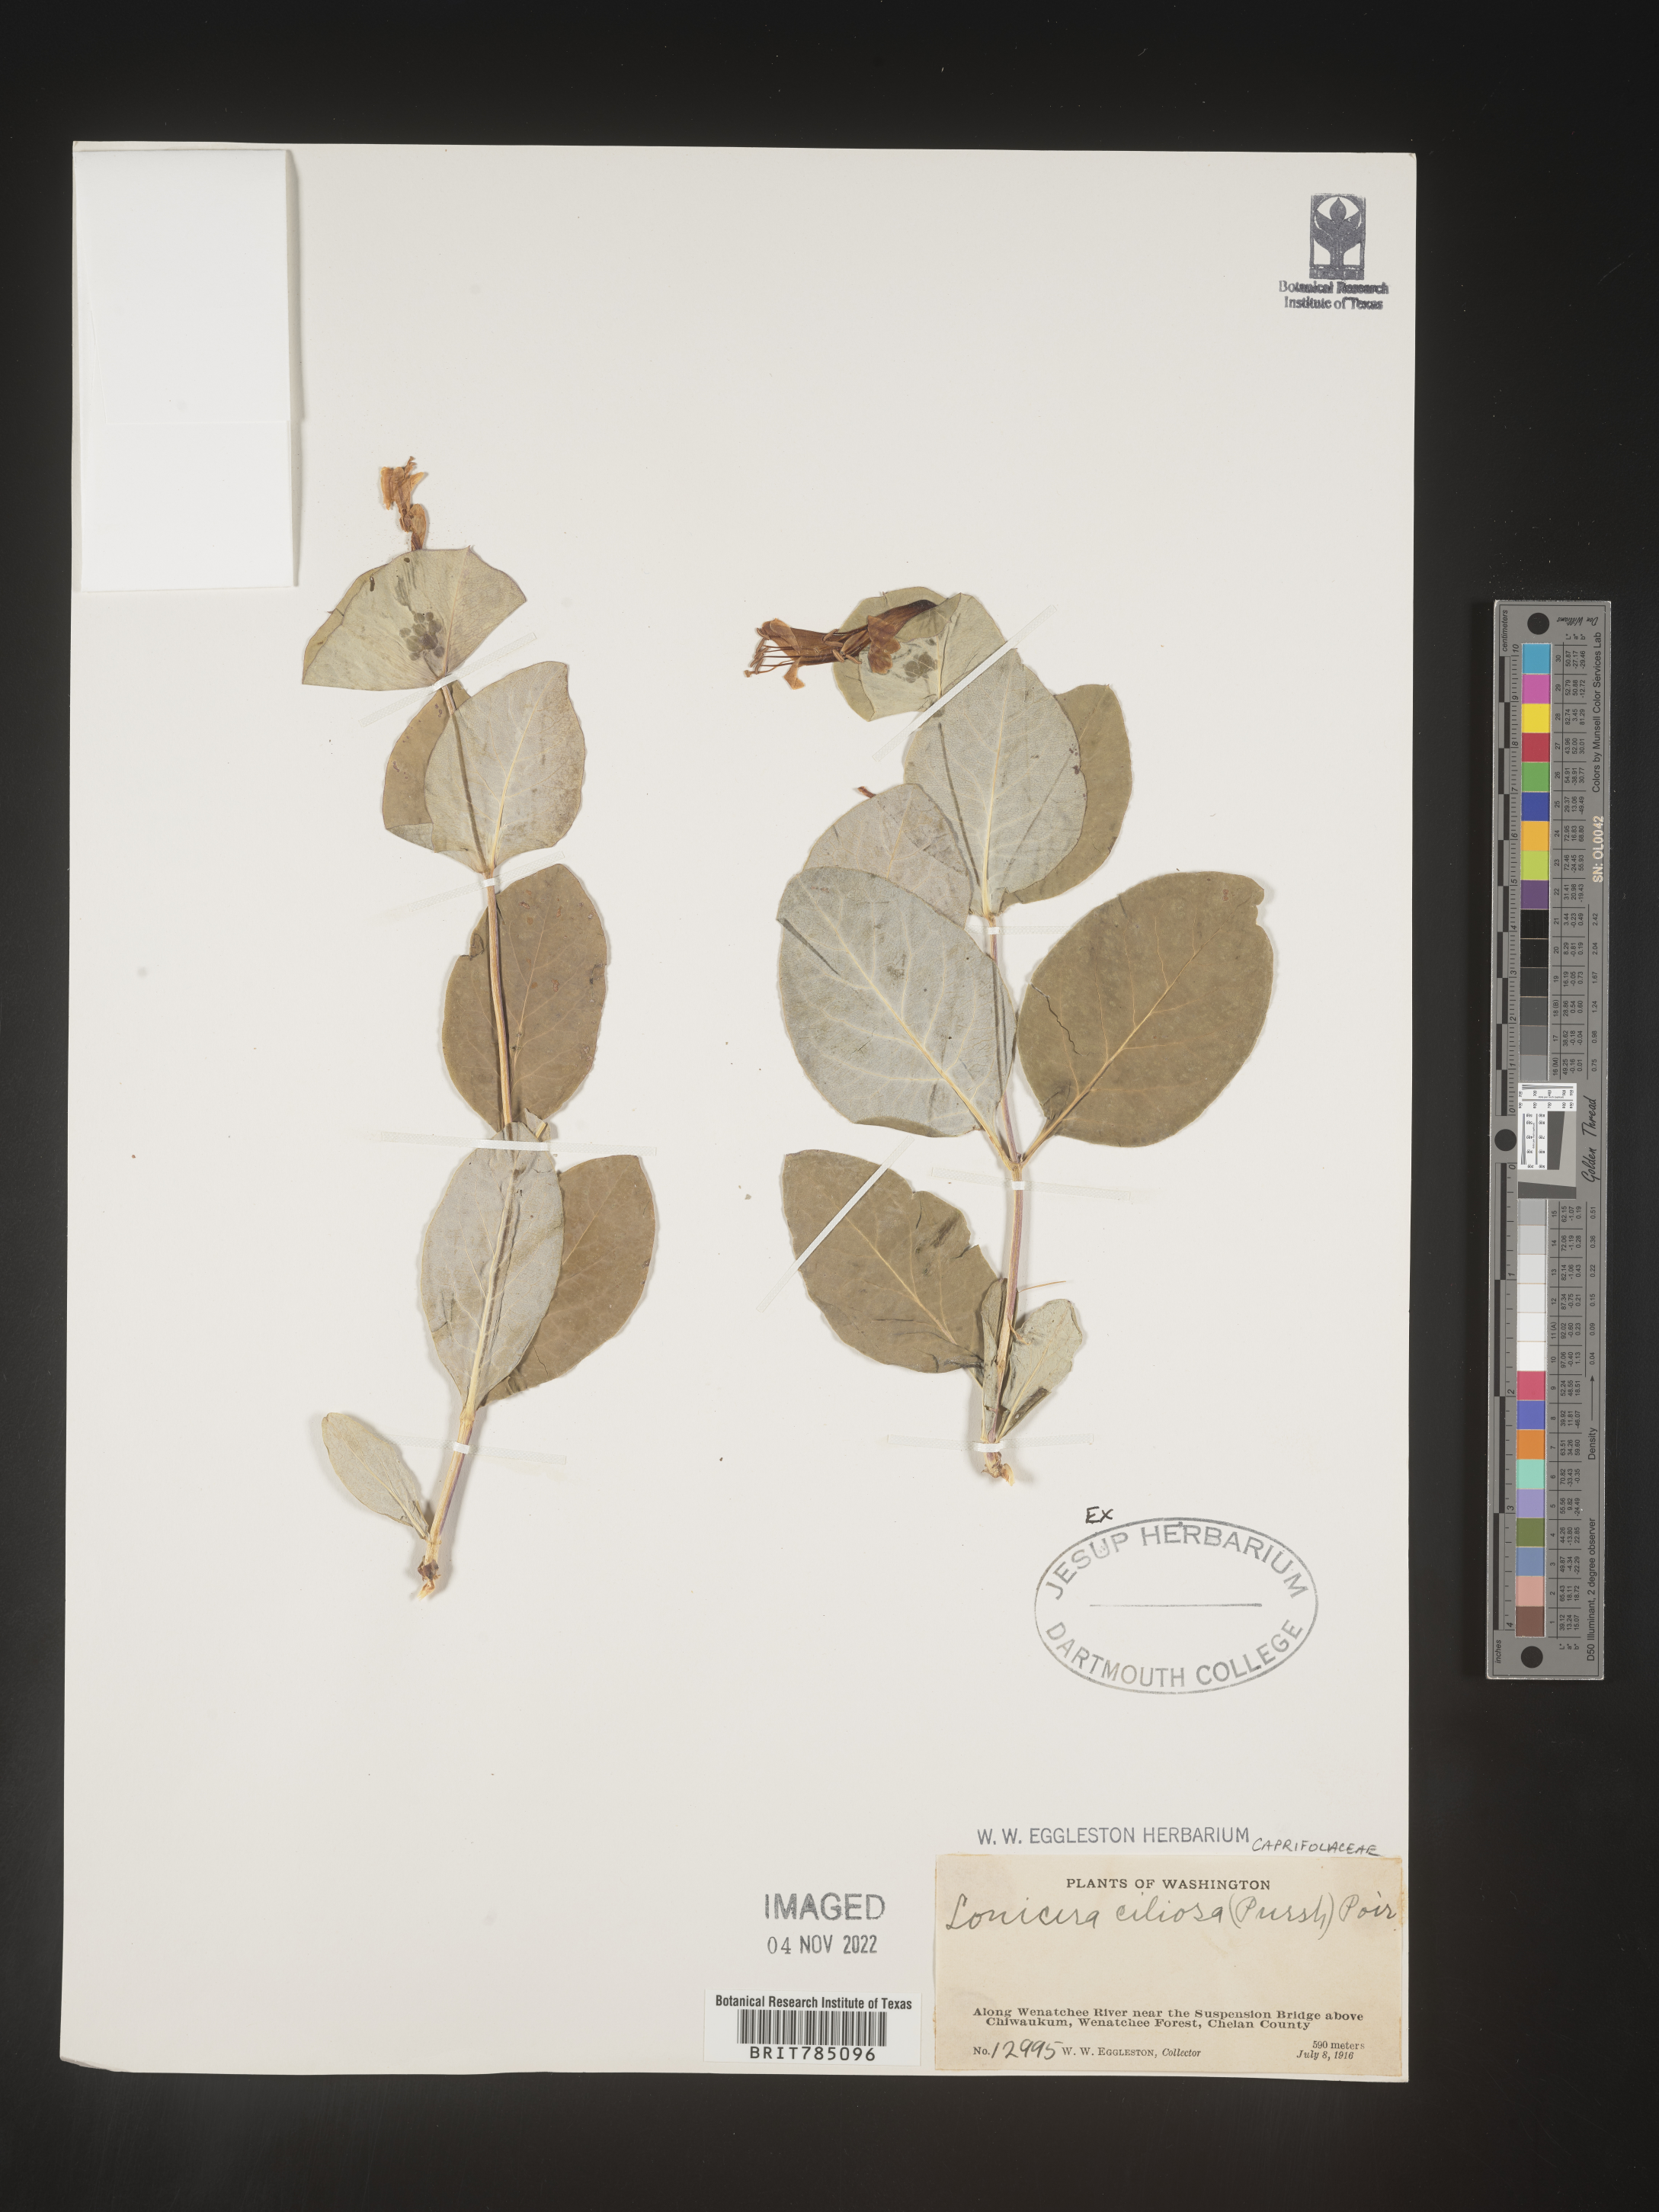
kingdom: Plantae
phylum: Tracheophyta
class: Magnoliopsida
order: Dipsacales
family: Caprifoliaceae
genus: Lonicera
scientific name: Lonicera
